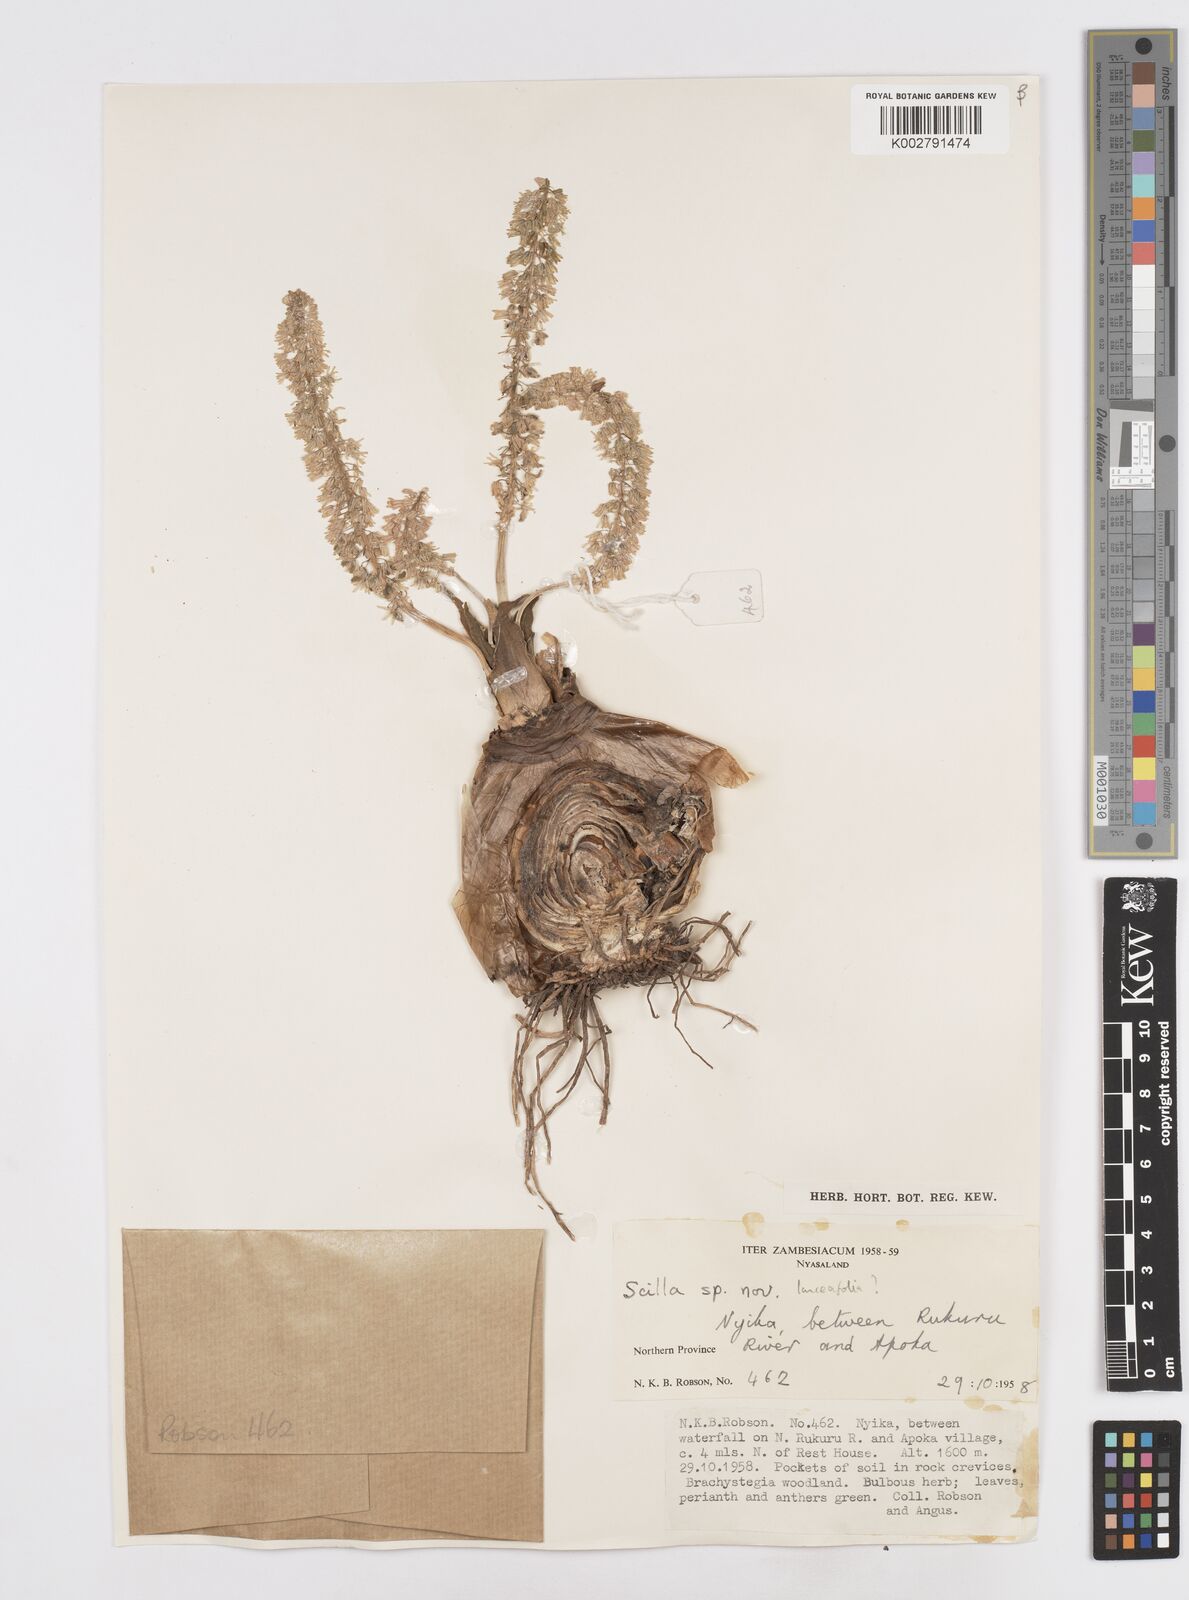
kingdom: Plantae
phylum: Tracheophyta
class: Liliopsida
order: Asparagales
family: Asparagaceae
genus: Scilla
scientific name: Scilla
